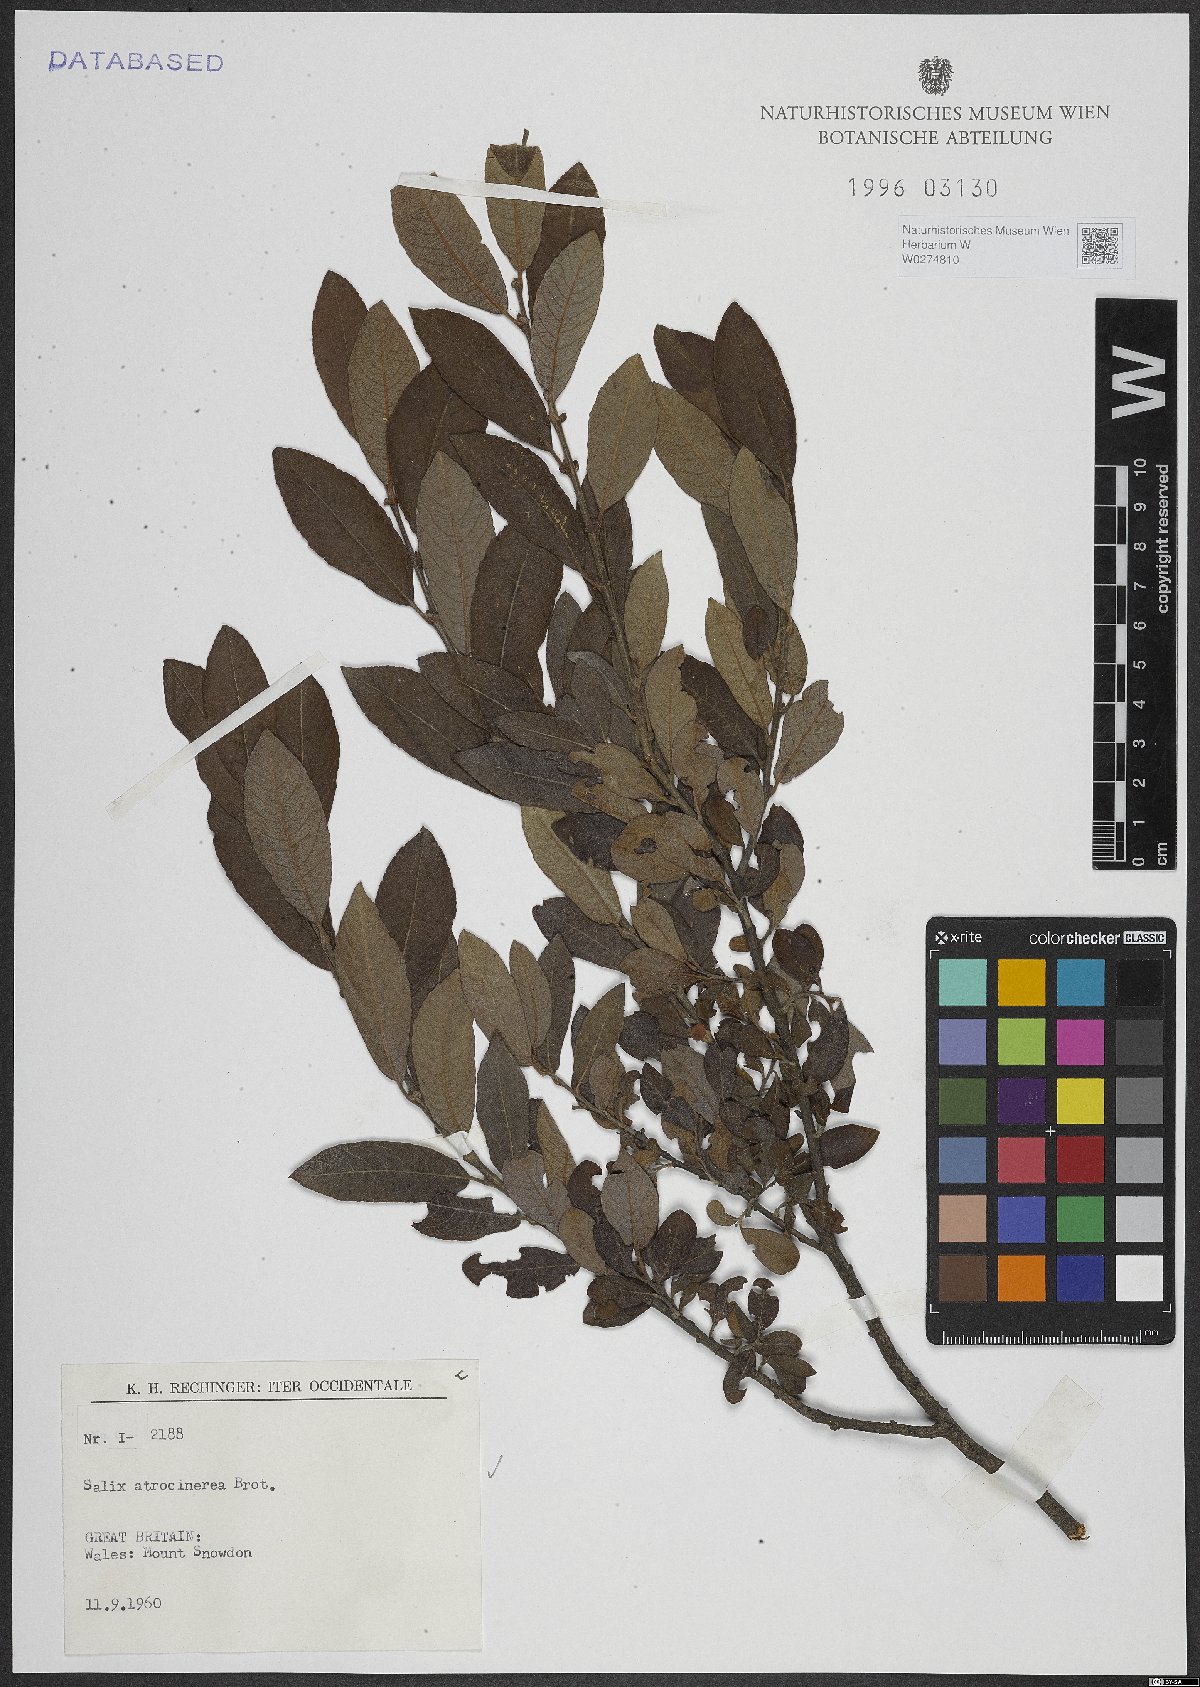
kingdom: Plantae
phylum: Tracheophyta
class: Magnoliopsida
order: Malpighiales
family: Salicaceae
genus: Salix
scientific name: Salix atrocinerea
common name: Rusty willow
